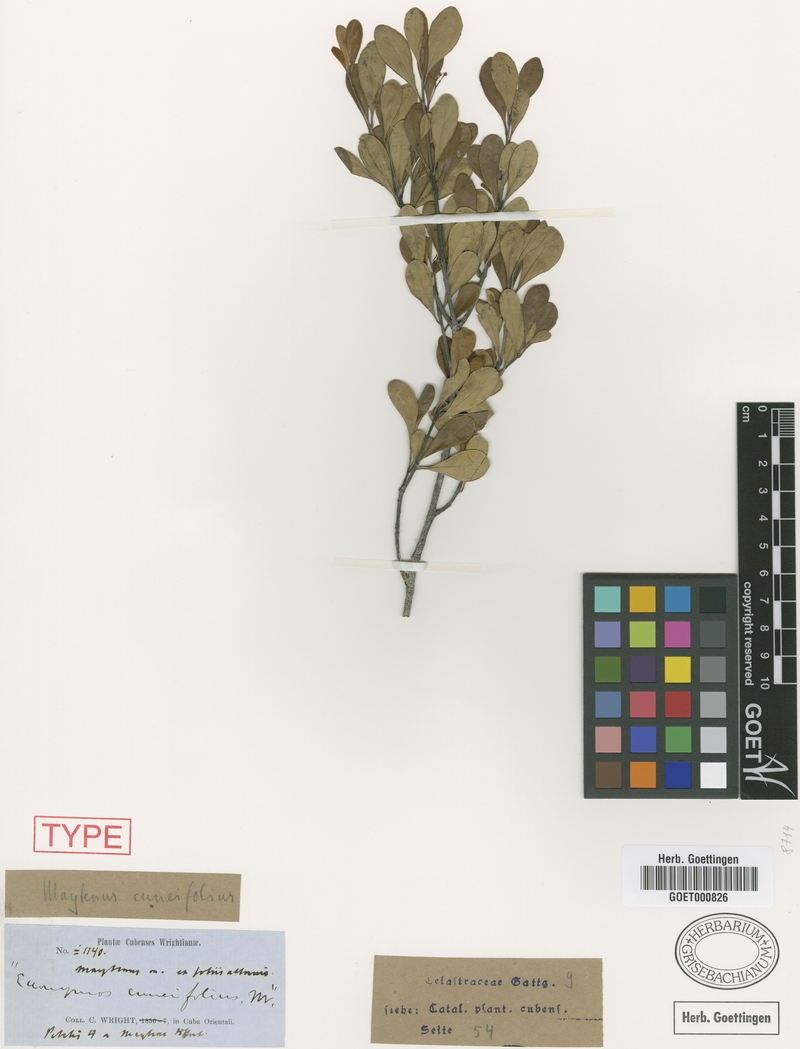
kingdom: Plantae
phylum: Tracheophyta
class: Magnoliopsida
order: Celastrales
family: Celastraceae
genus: Torralbasia
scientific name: Torralbasia cuneifolia
